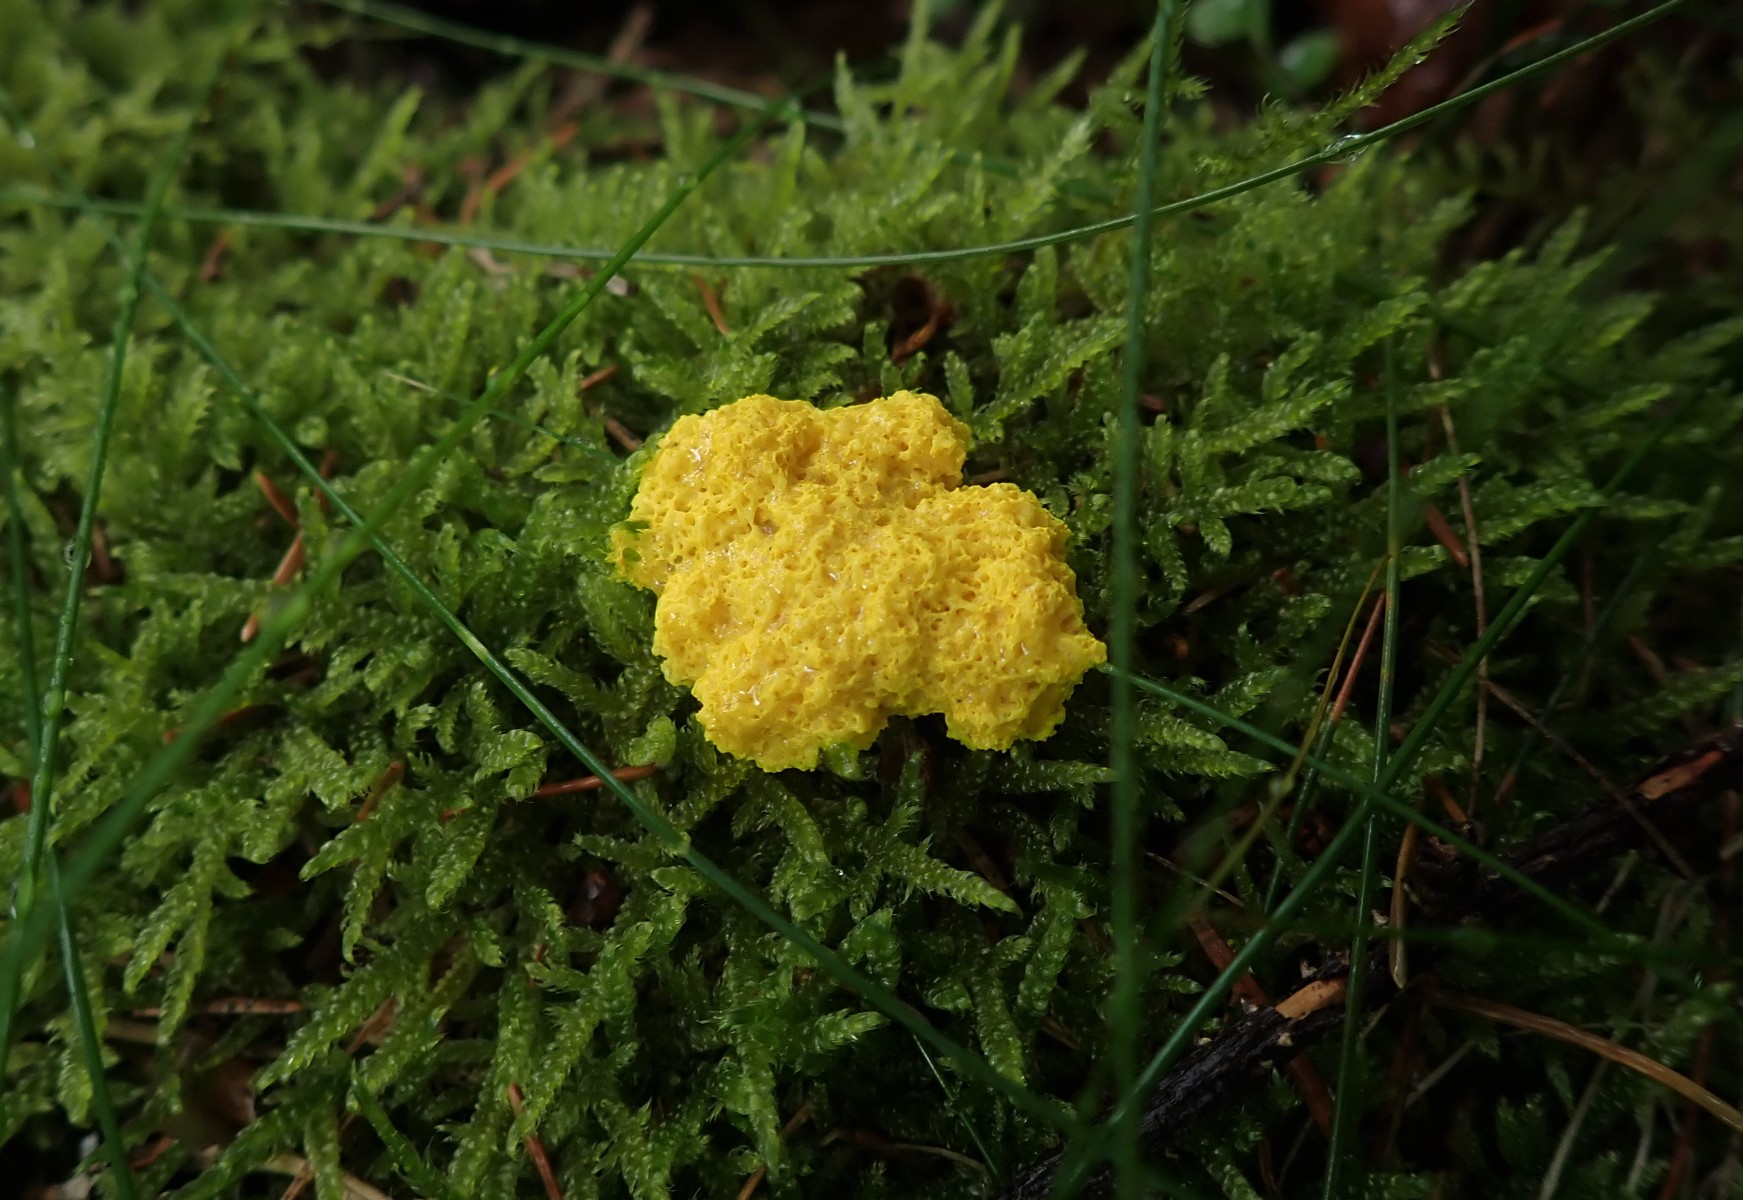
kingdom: Protozoa
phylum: Mycetozoa
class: Myxomycetes
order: Physarales
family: Physaraceae
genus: Fuligo
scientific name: Fuligo septica
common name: gul troldsmør
